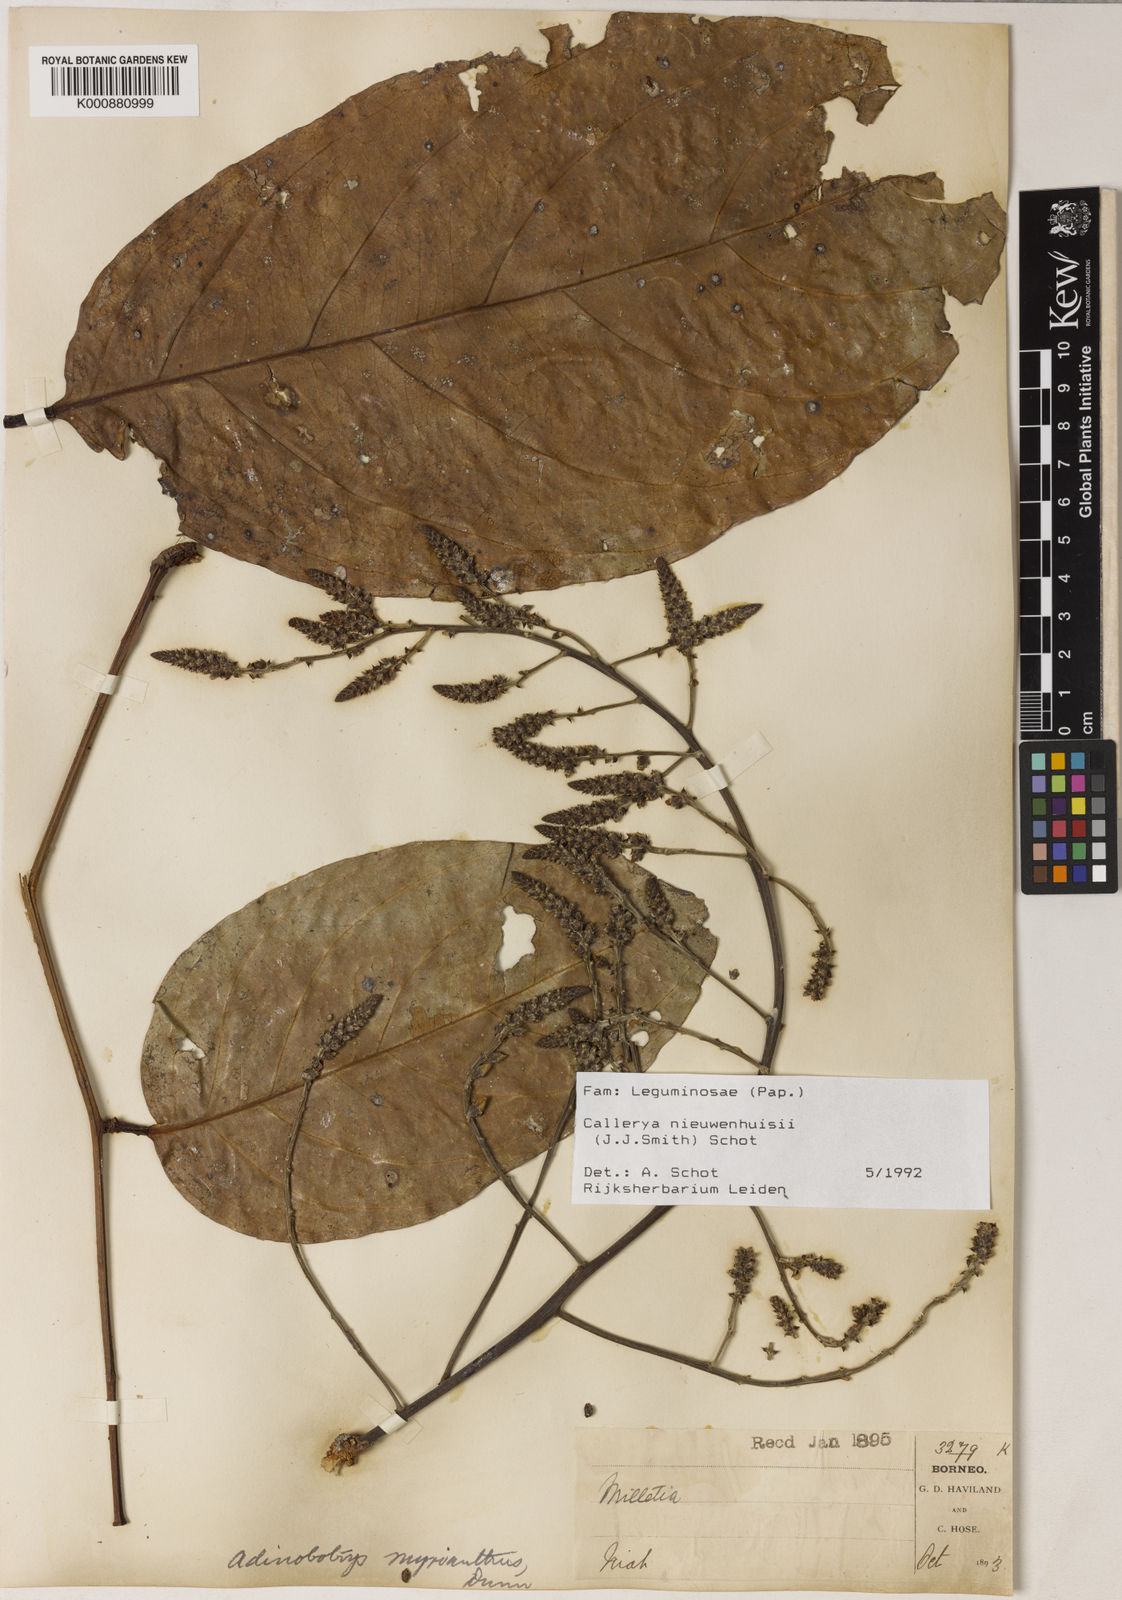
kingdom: Plantae
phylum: Tracheophyta
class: Magnoliopsida
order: Fabales
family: Fabaceae
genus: Whitfordiodendron
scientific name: Whitfordiodendron nieuwenhuisii
